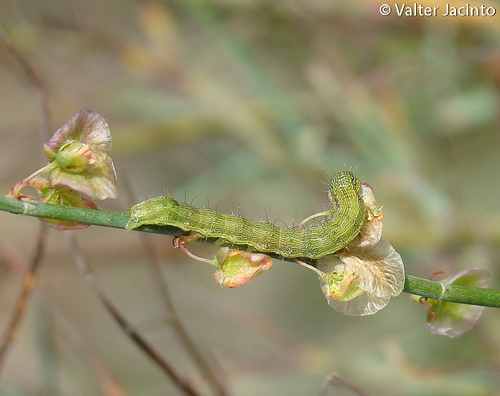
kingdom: Animalia
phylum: Arthropoda
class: Insecta
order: Lepidoptera
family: Noctuidae
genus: Helicoverpa
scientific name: Helicoverpa armigera
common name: Cotton bollworm
